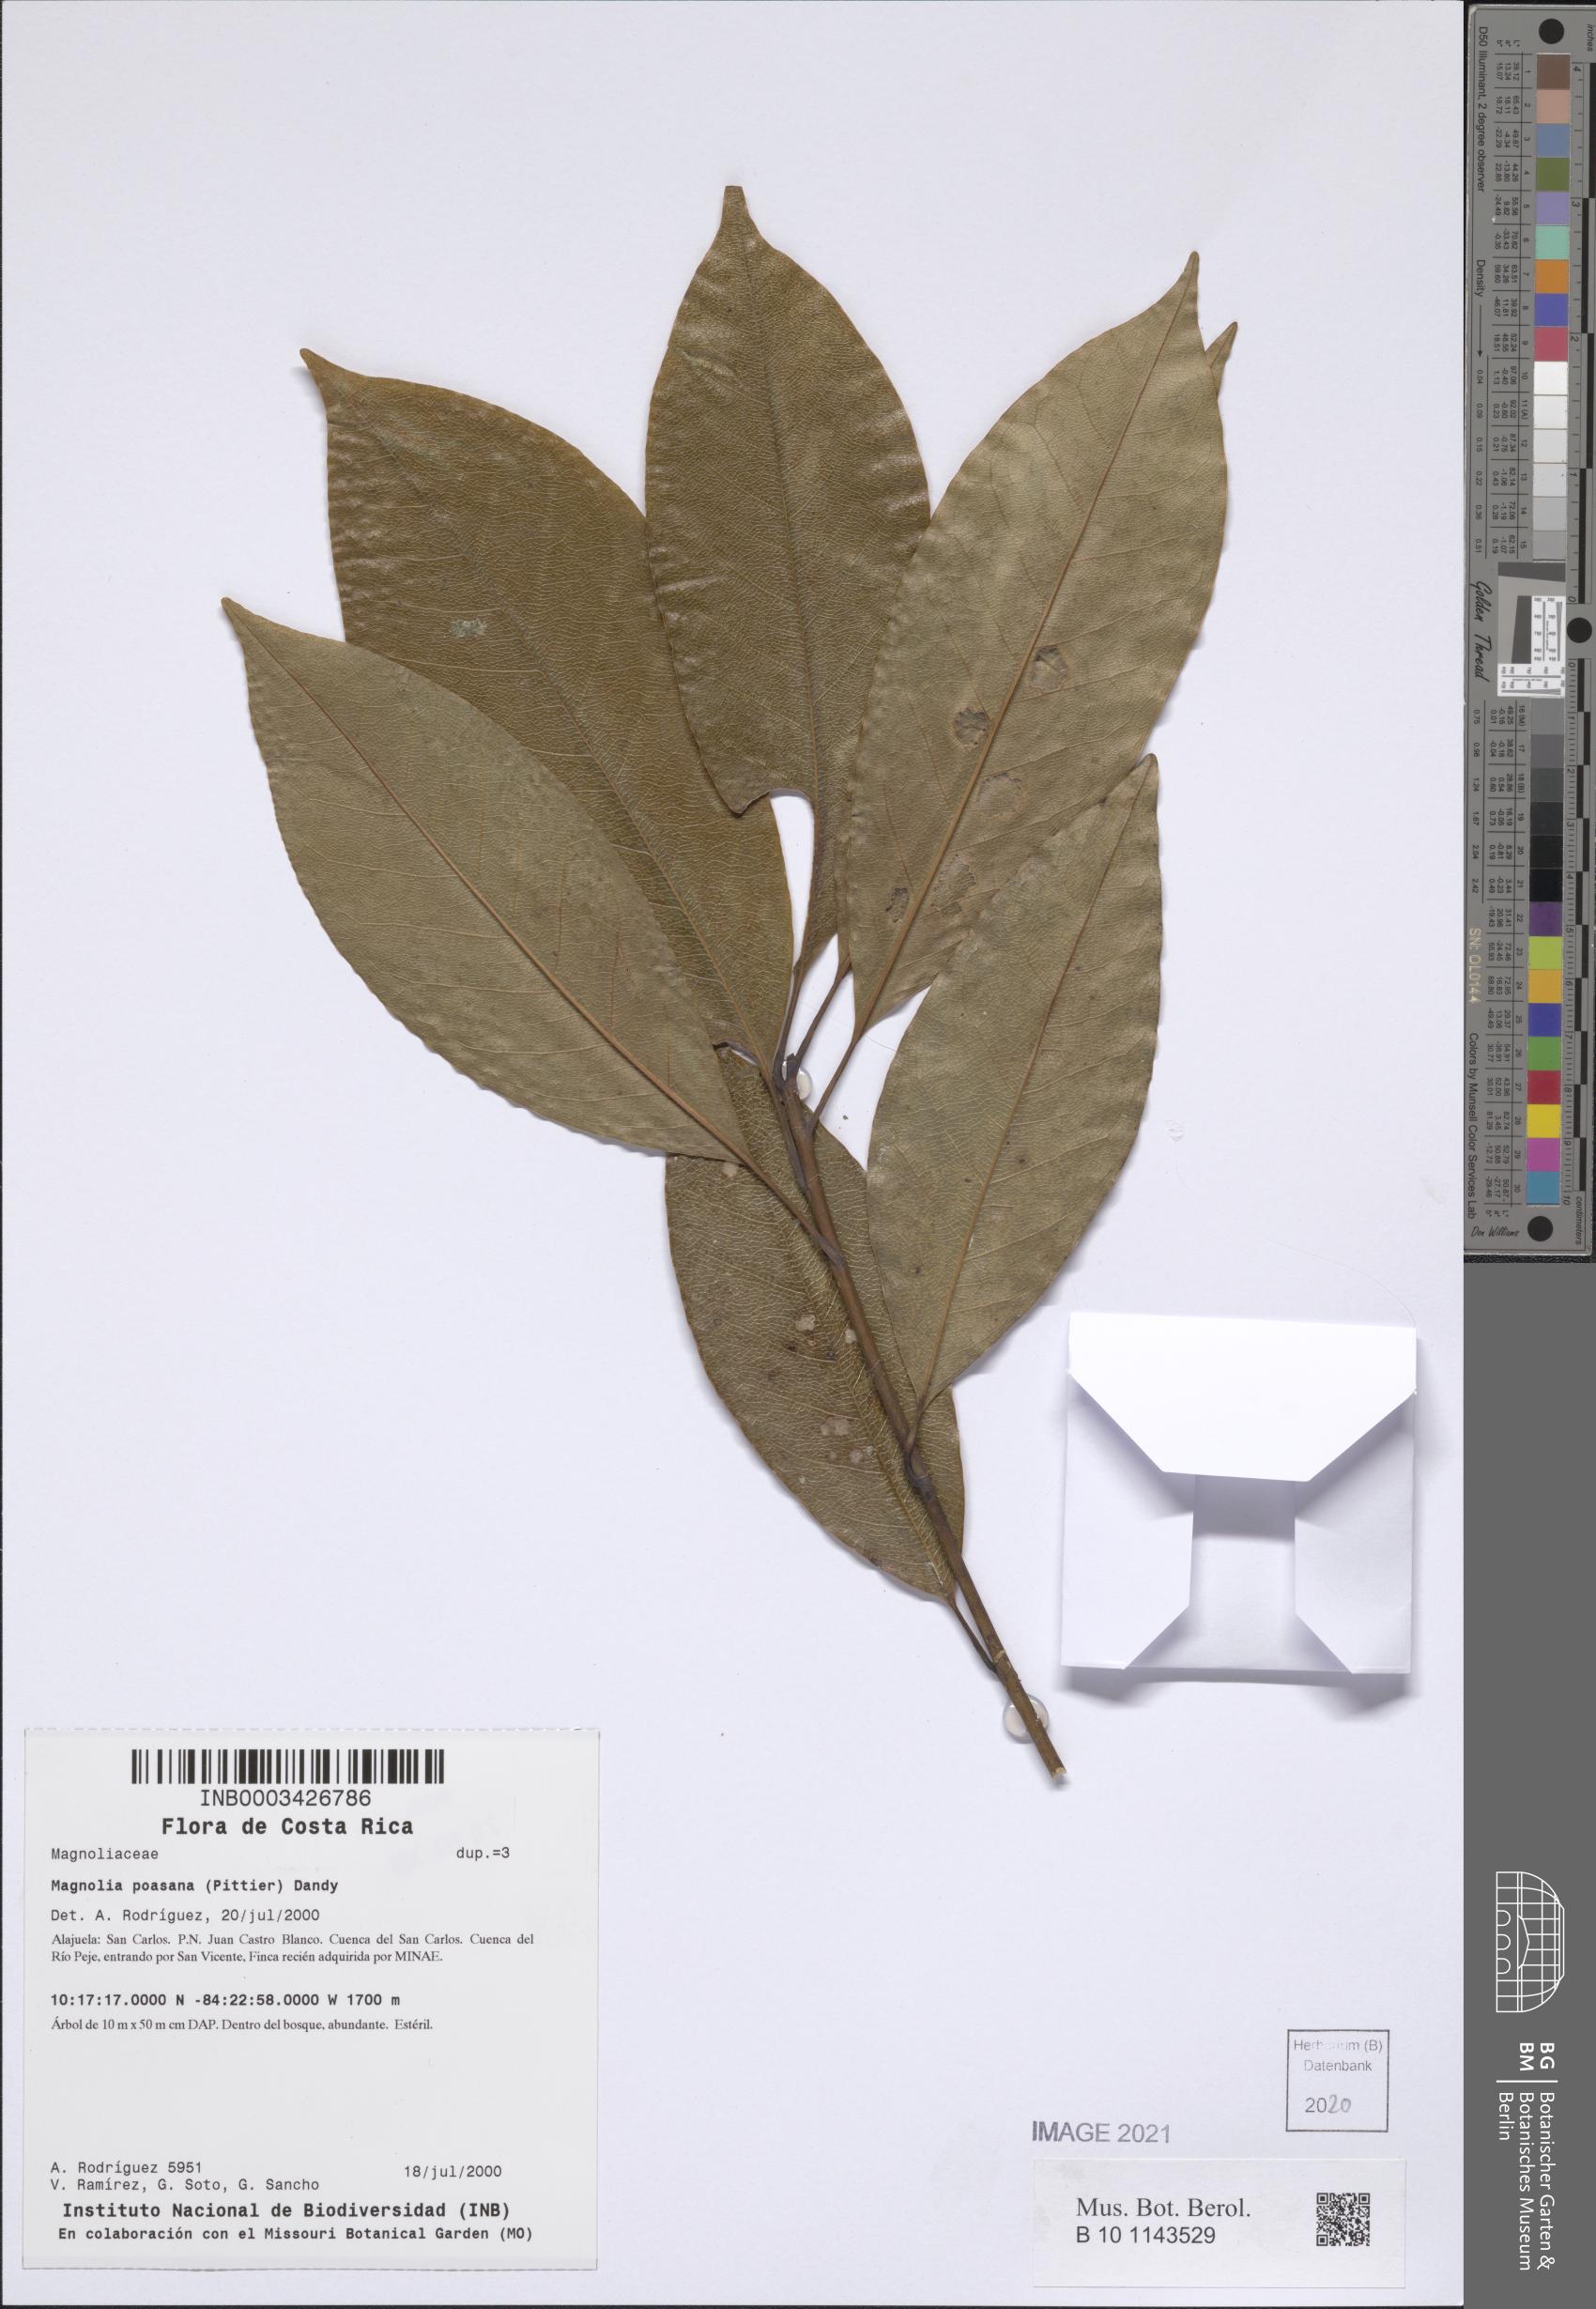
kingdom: Plantae
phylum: Tracheophyta
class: Magnoliopsida
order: Magnoliales
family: Magnoliaceae
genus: Magnolia
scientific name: Magnolia poasana
